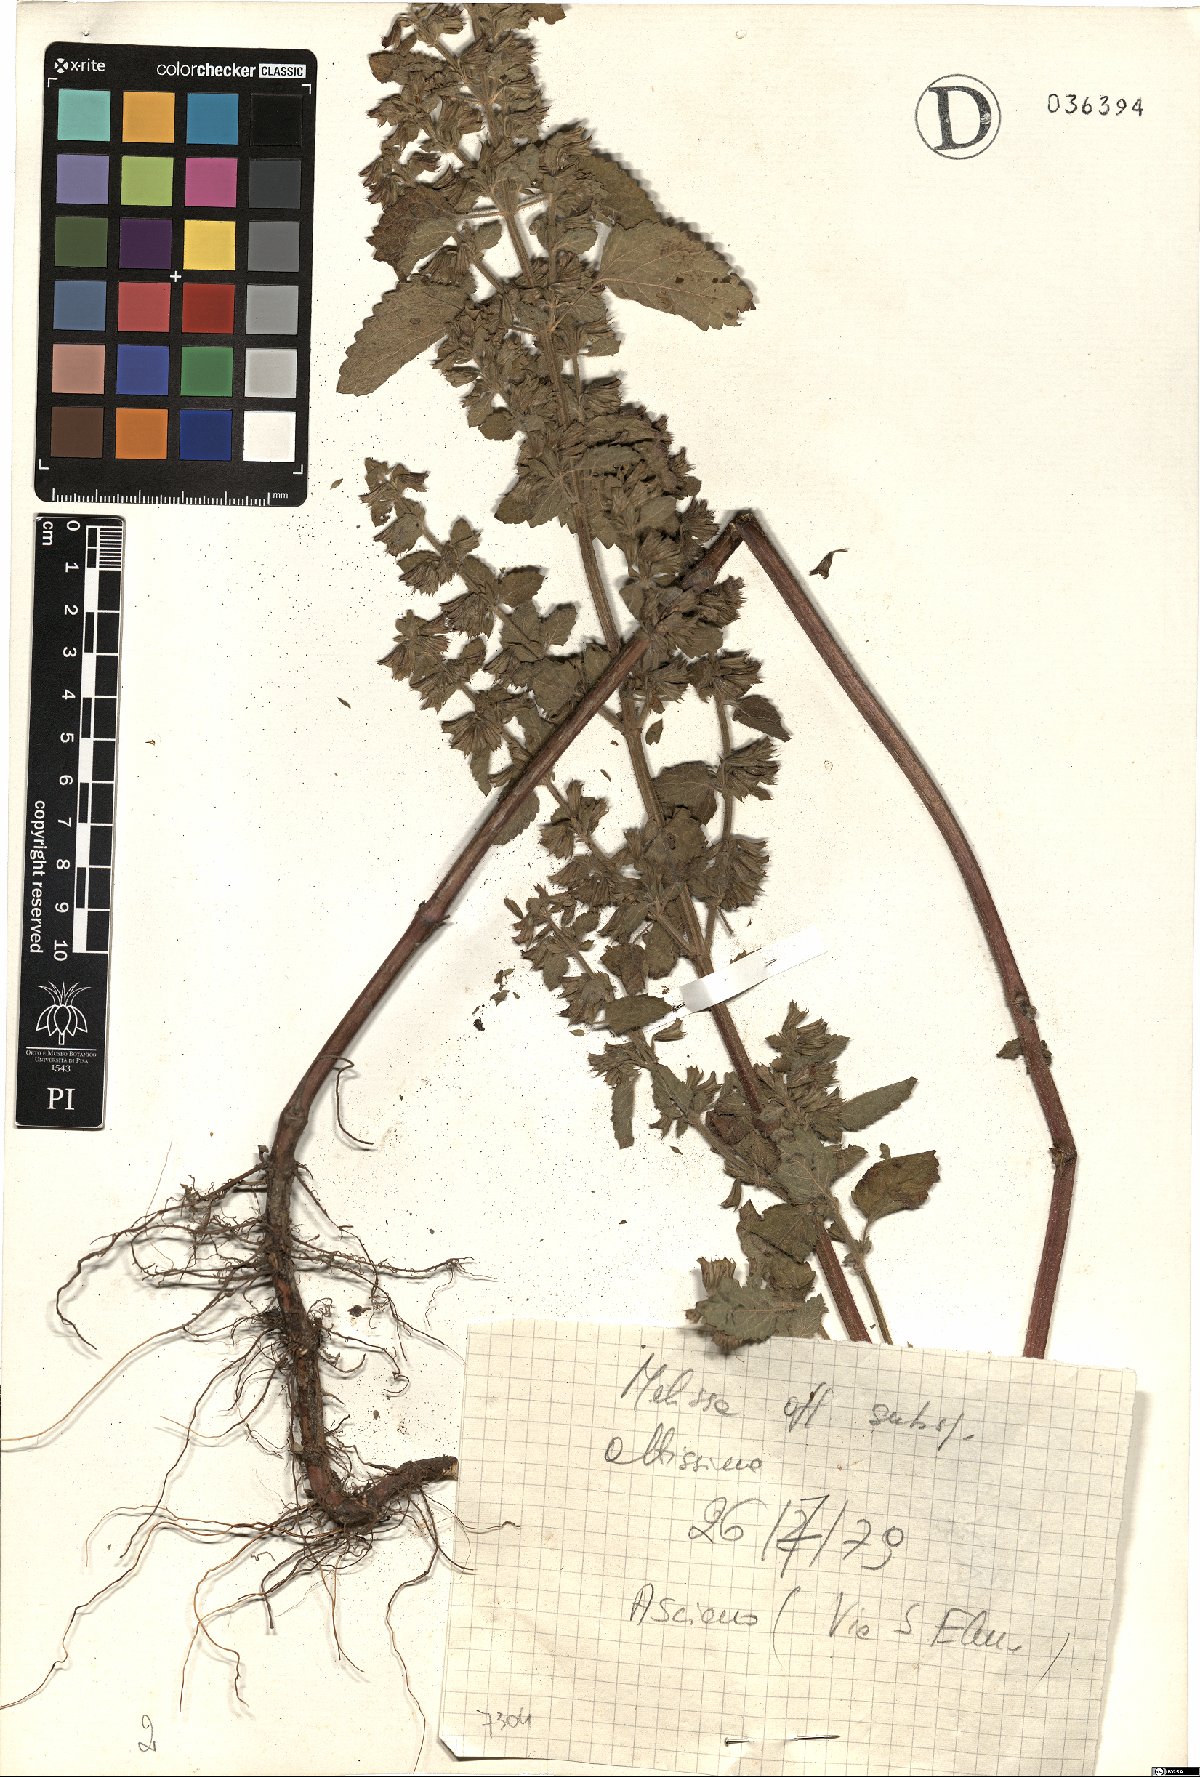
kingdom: Plantae
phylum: Tracheophyta
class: Magnoliopsida
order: Lamiales
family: Lamiaceae
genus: Melissa
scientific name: Melissa officinalis
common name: Balm
